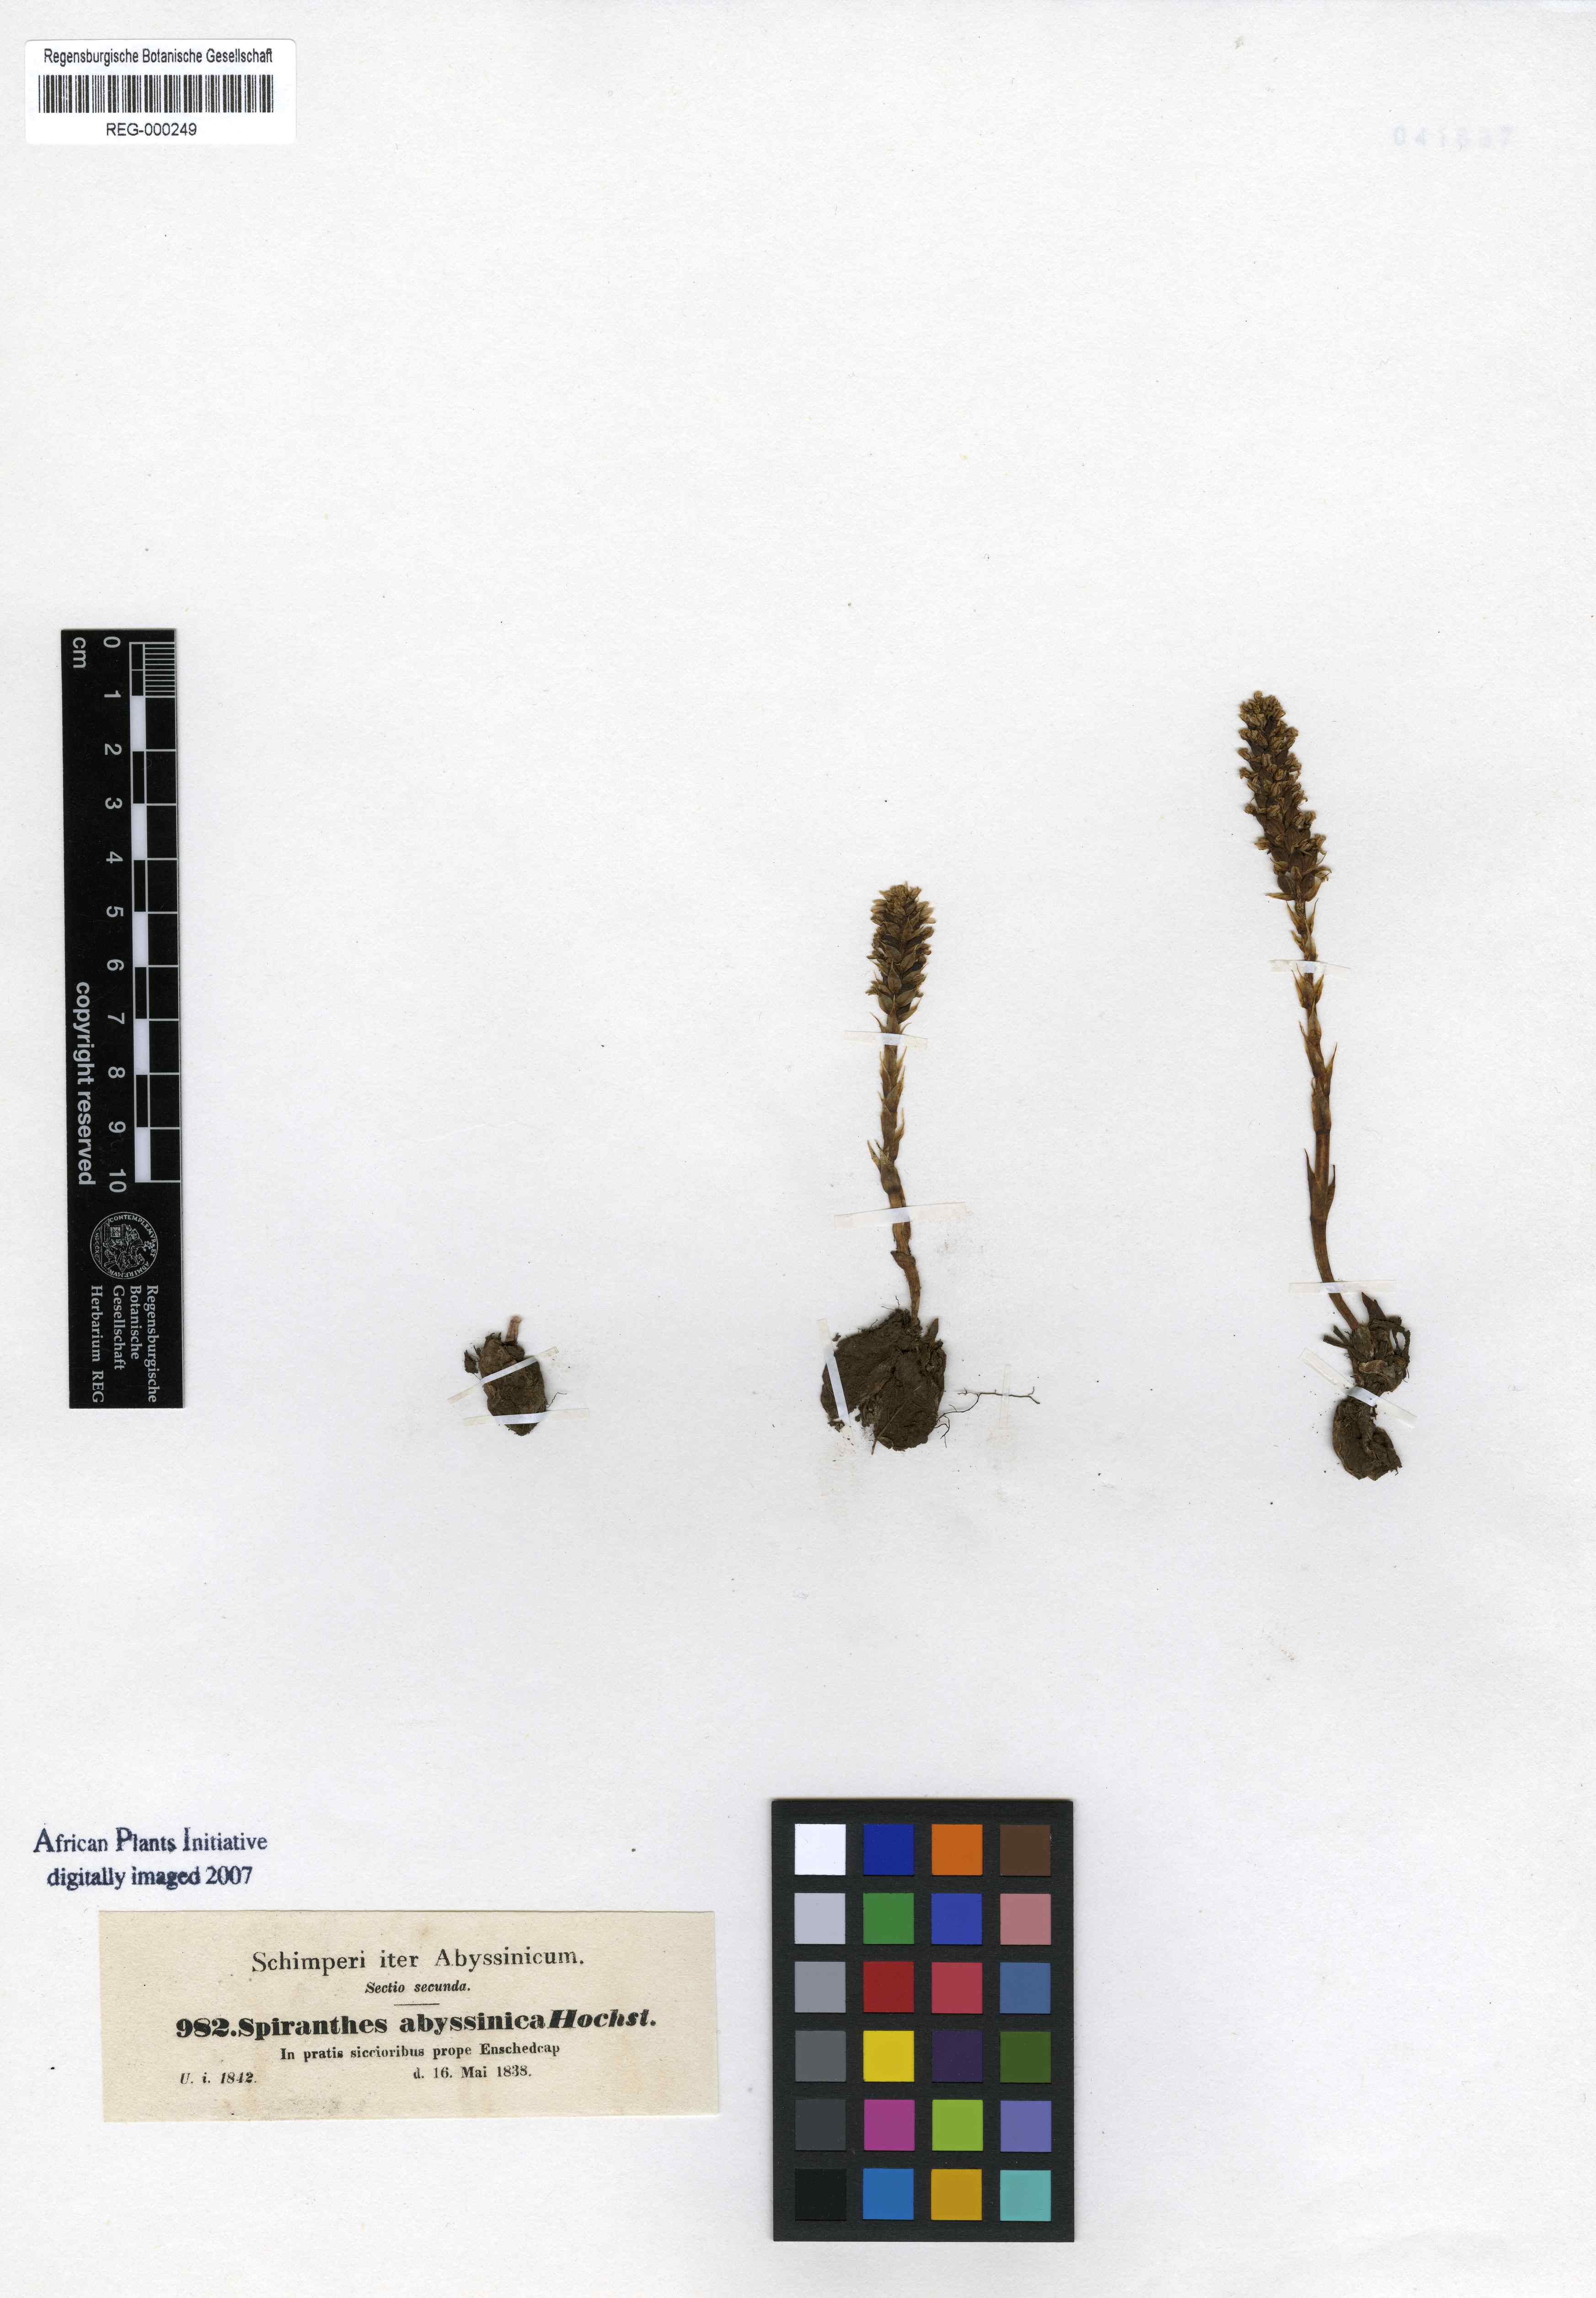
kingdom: Plantae
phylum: Tracheophyta
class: Liliopsida
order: Asparagales
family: Orchidaceae
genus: Holothrix
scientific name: Holothrix squammata
